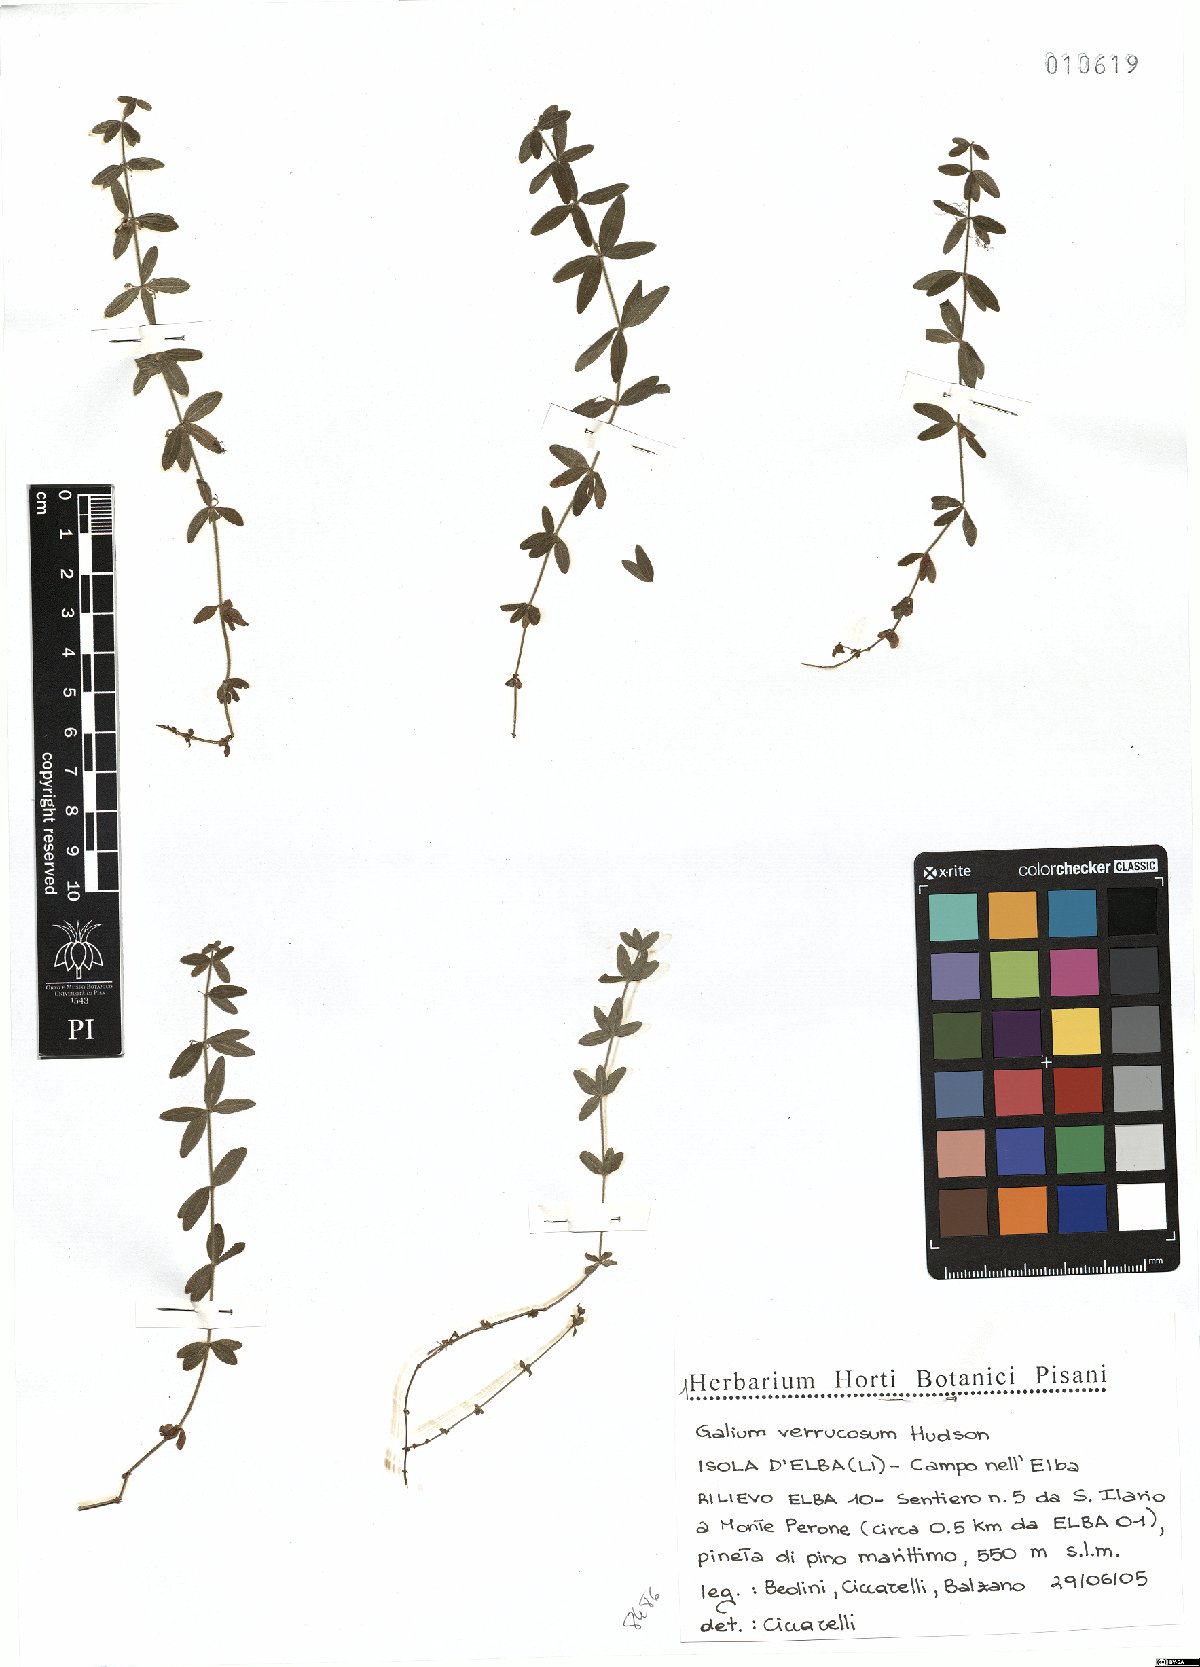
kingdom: Plantae
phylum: Tracheophyta
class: Magnoliopsida
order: Gentianales
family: Rubiaceae
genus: Galium
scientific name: Galium verrucosum
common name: Warty bedstraw
